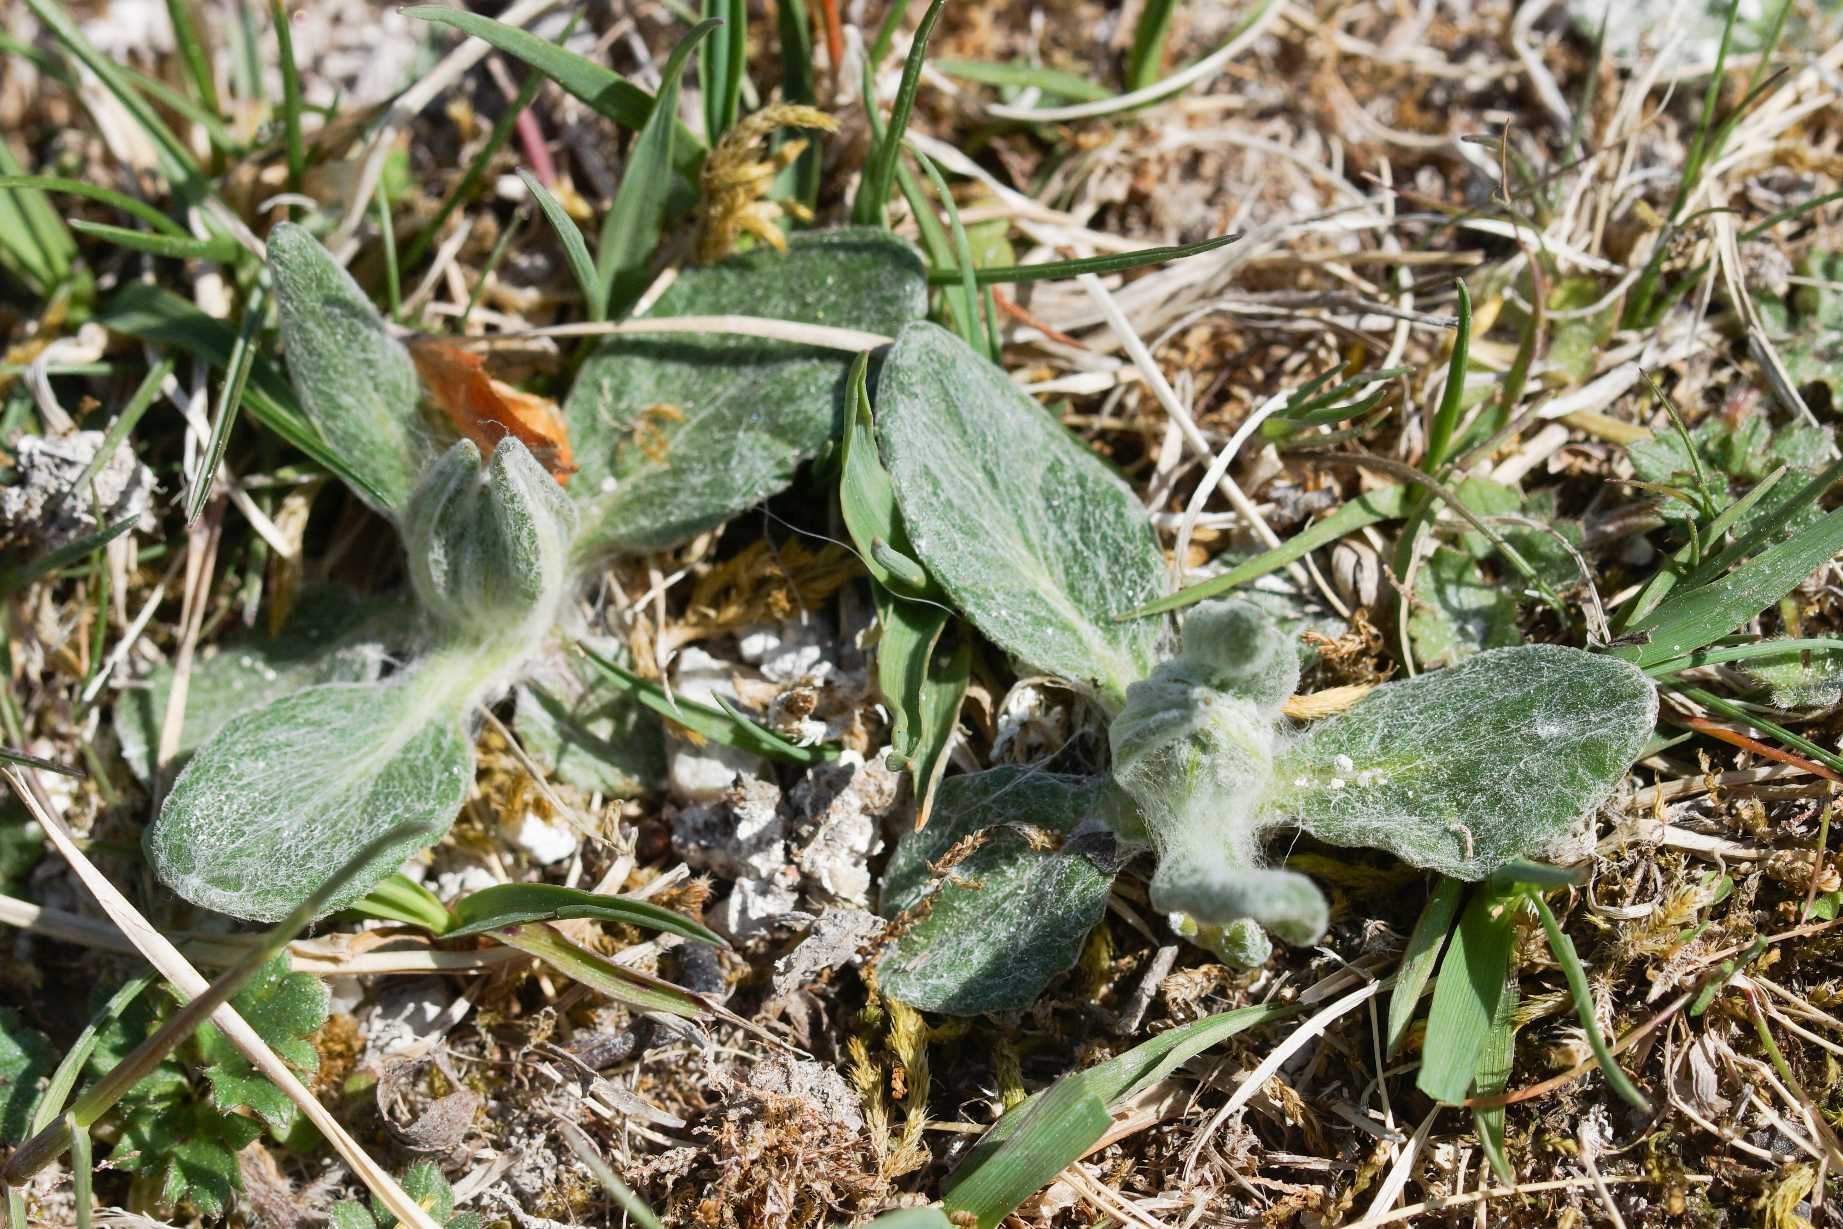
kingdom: Plantae
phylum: Tracheophyta
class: Magnoliopsida
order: Asterales
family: Asteraceae
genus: Tephroseris
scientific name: Tephroseris integrifolia
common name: Bakke-fnokurt
